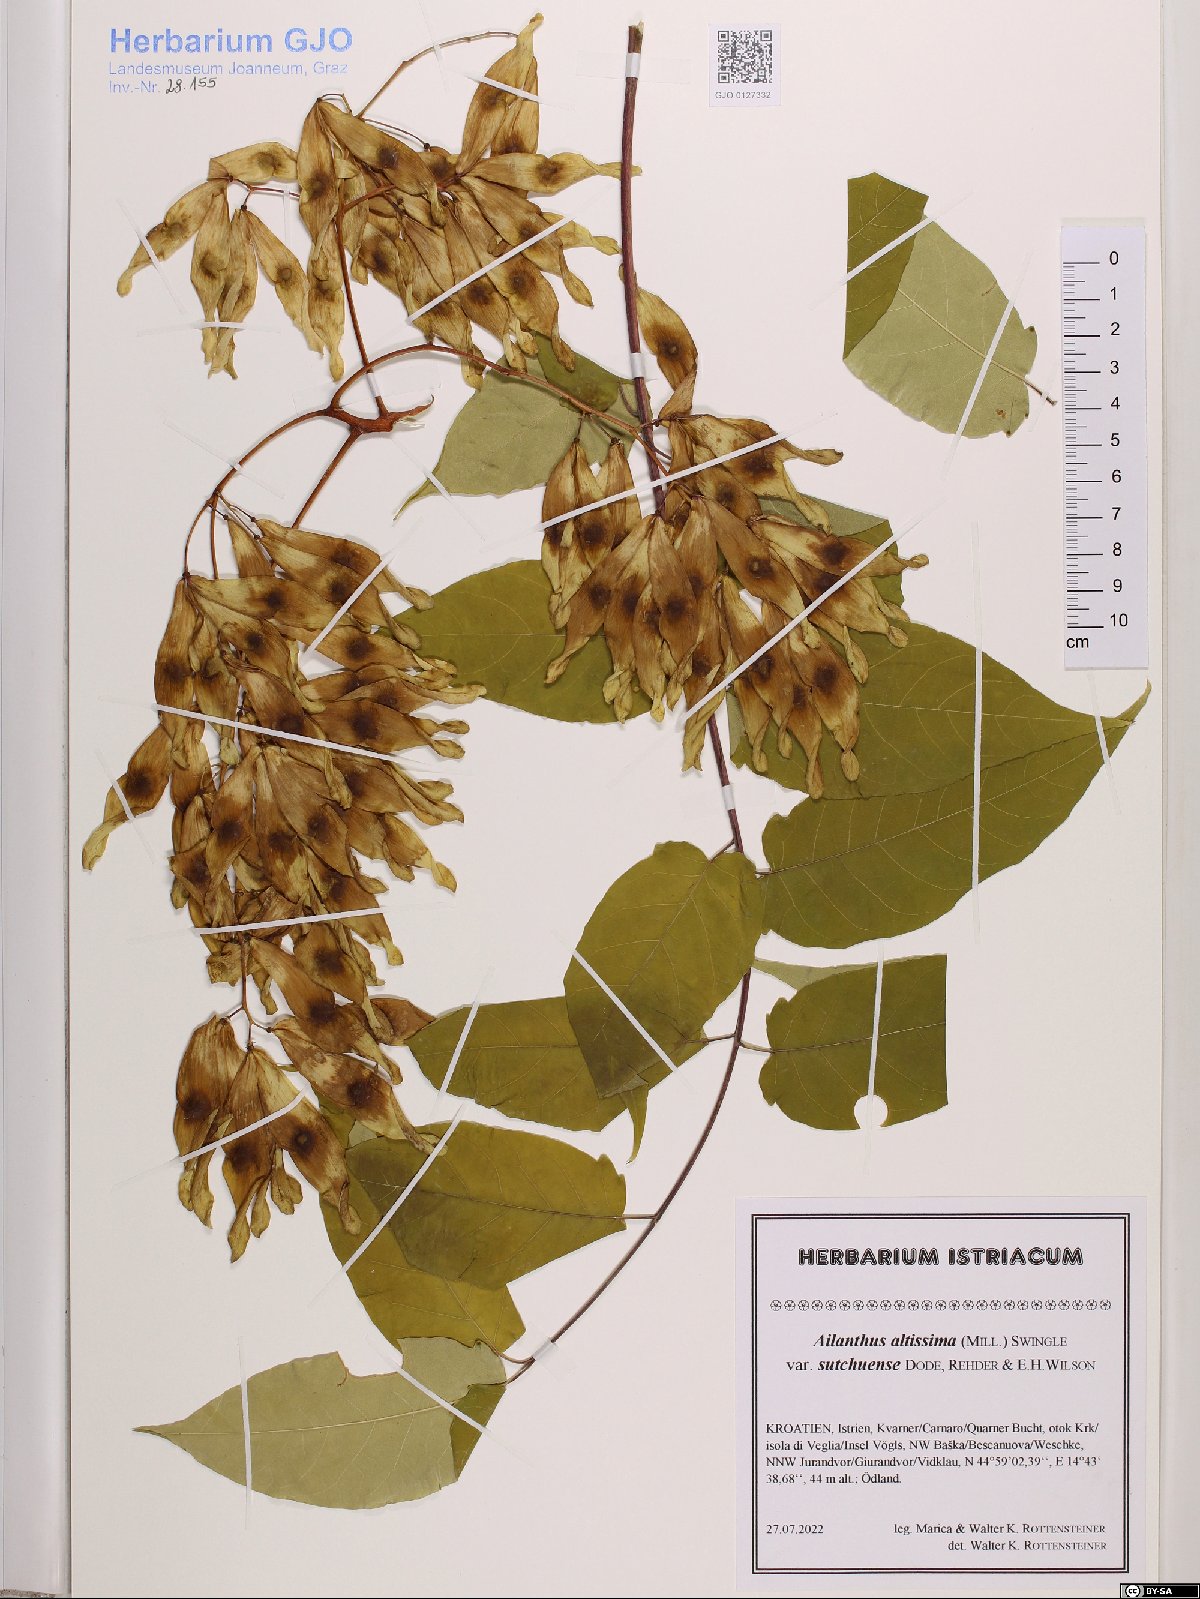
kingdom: Plantae
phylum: Tracheophyta
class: Magnoliopsida
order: Sapindales
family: Simaroubaceae
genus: Ailanthus
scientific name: Ailanthus altissima
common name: Tree-of-heaven
